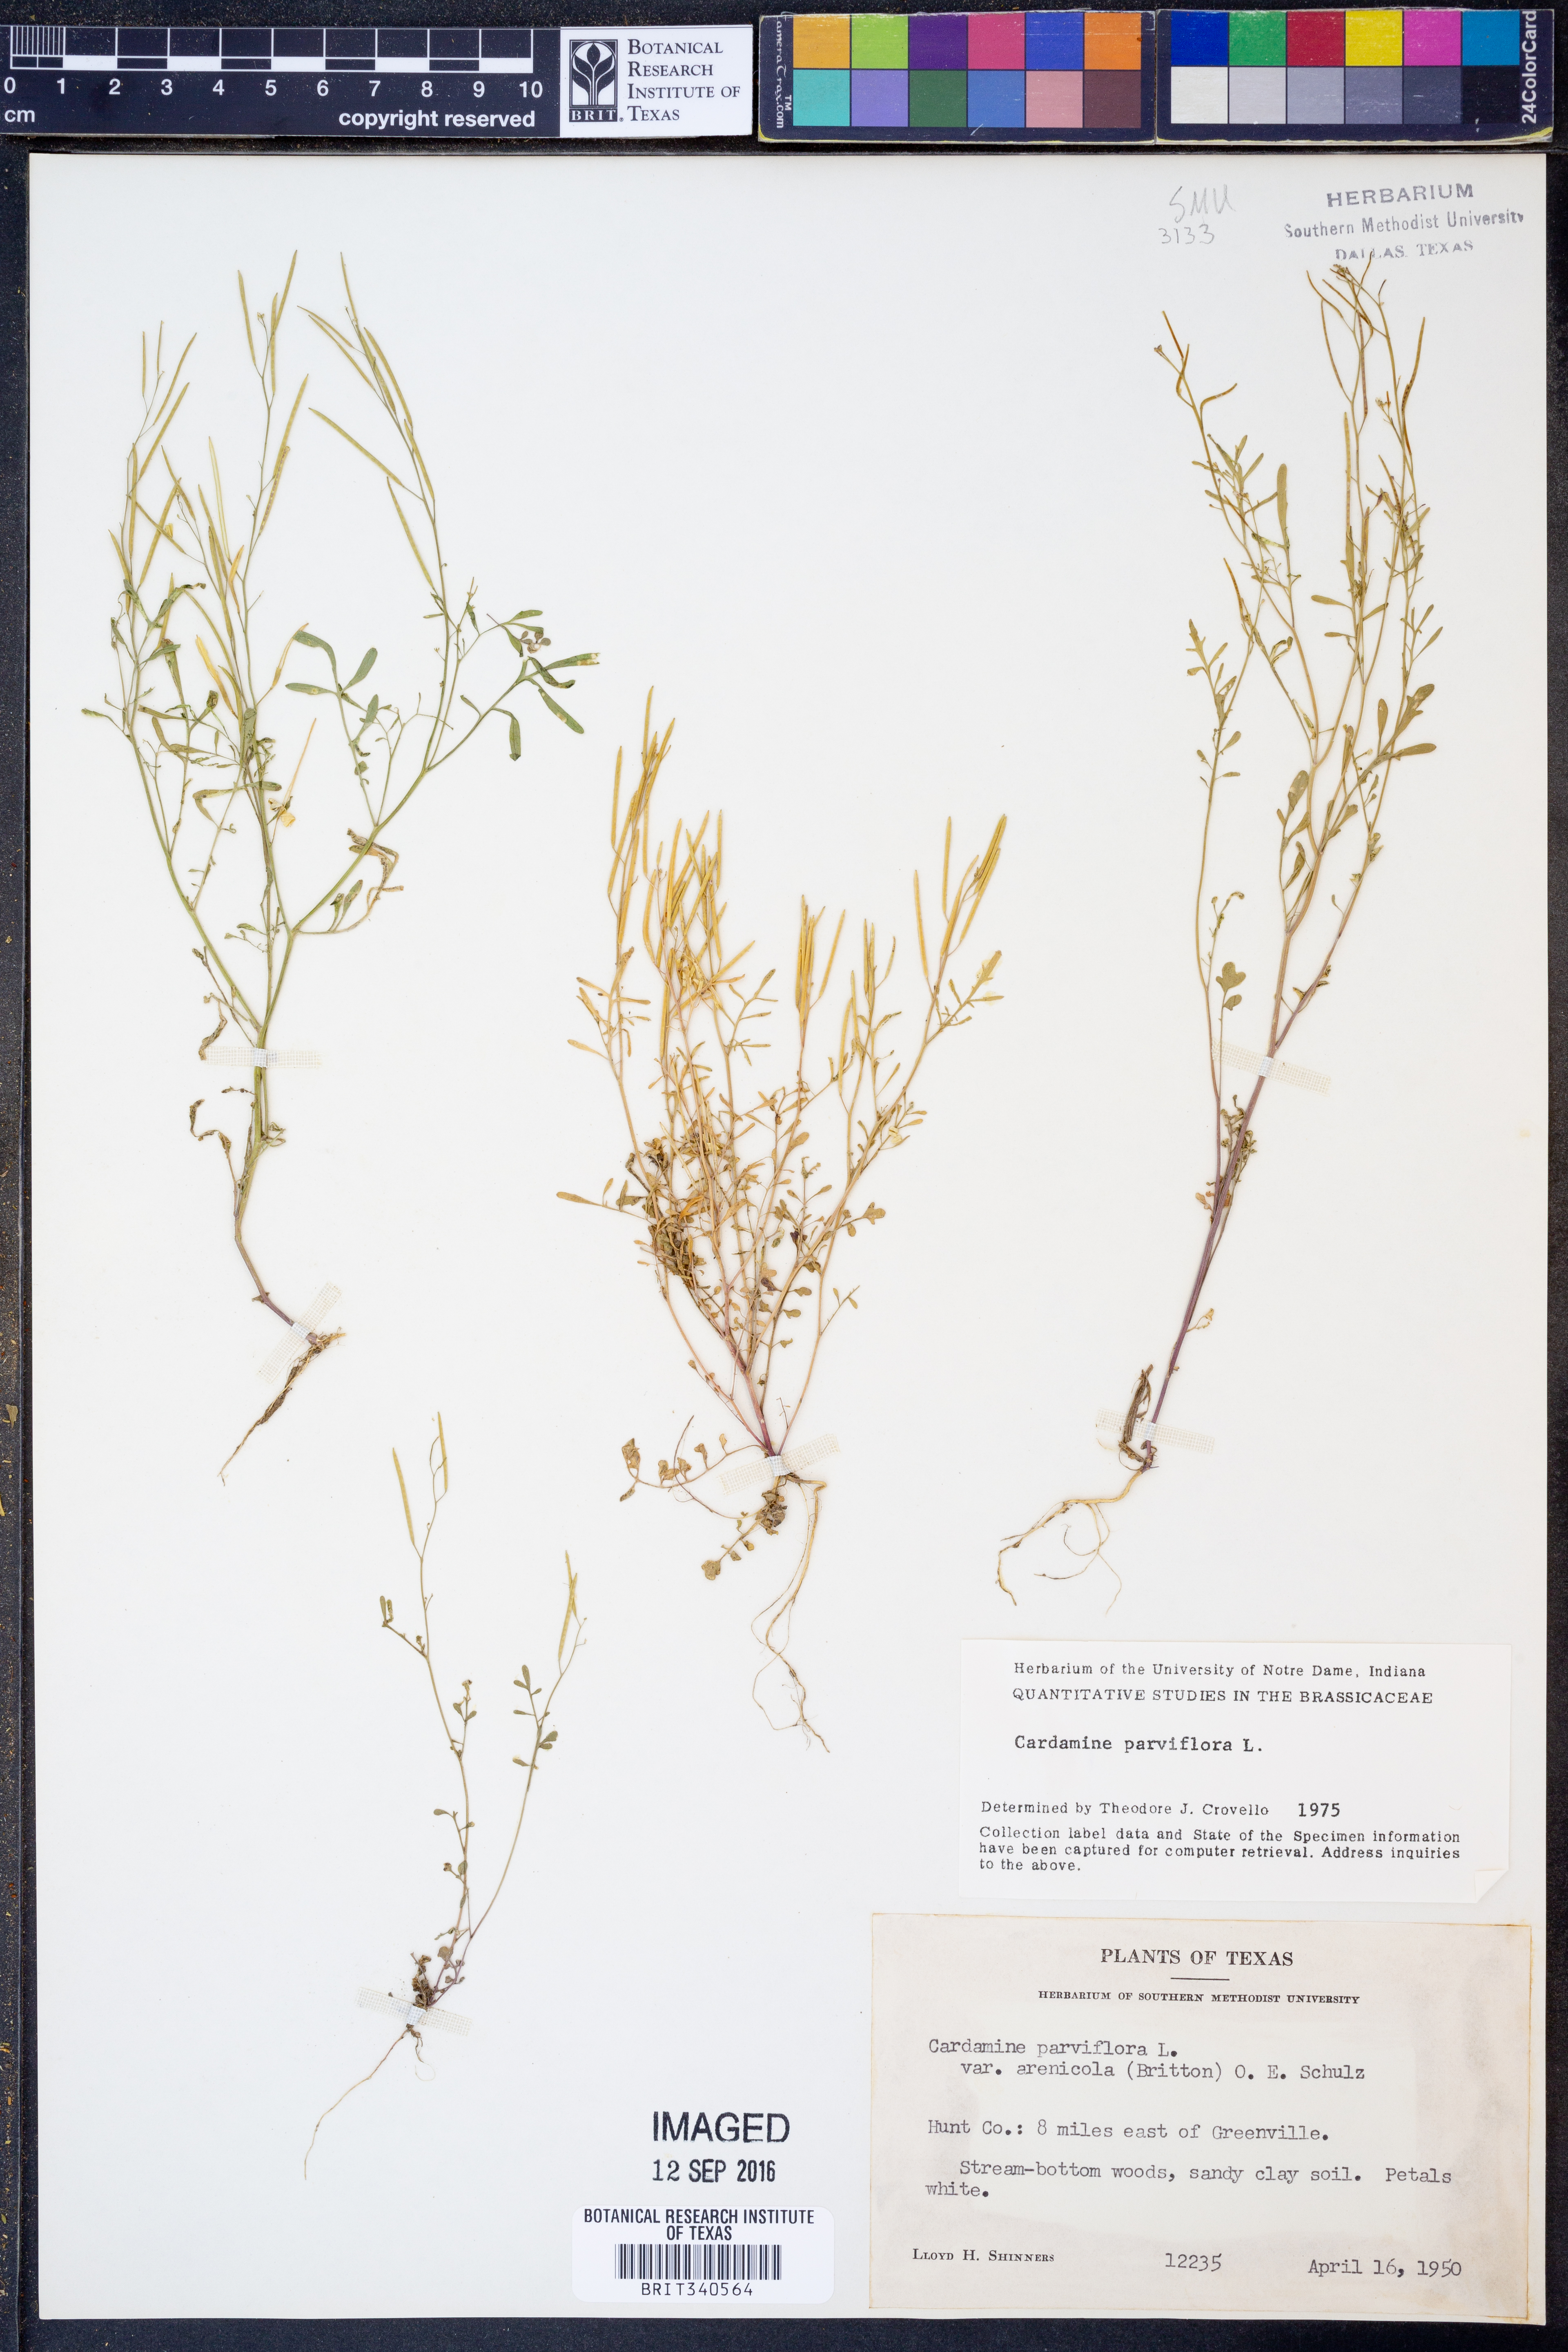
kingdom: Plantae
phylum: Tracheophyta
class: Magnoliopsida
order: Brassicales
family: Brassicaceae
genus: Cardamine
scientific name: Cardamine parviflora
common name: Sand bittercress
